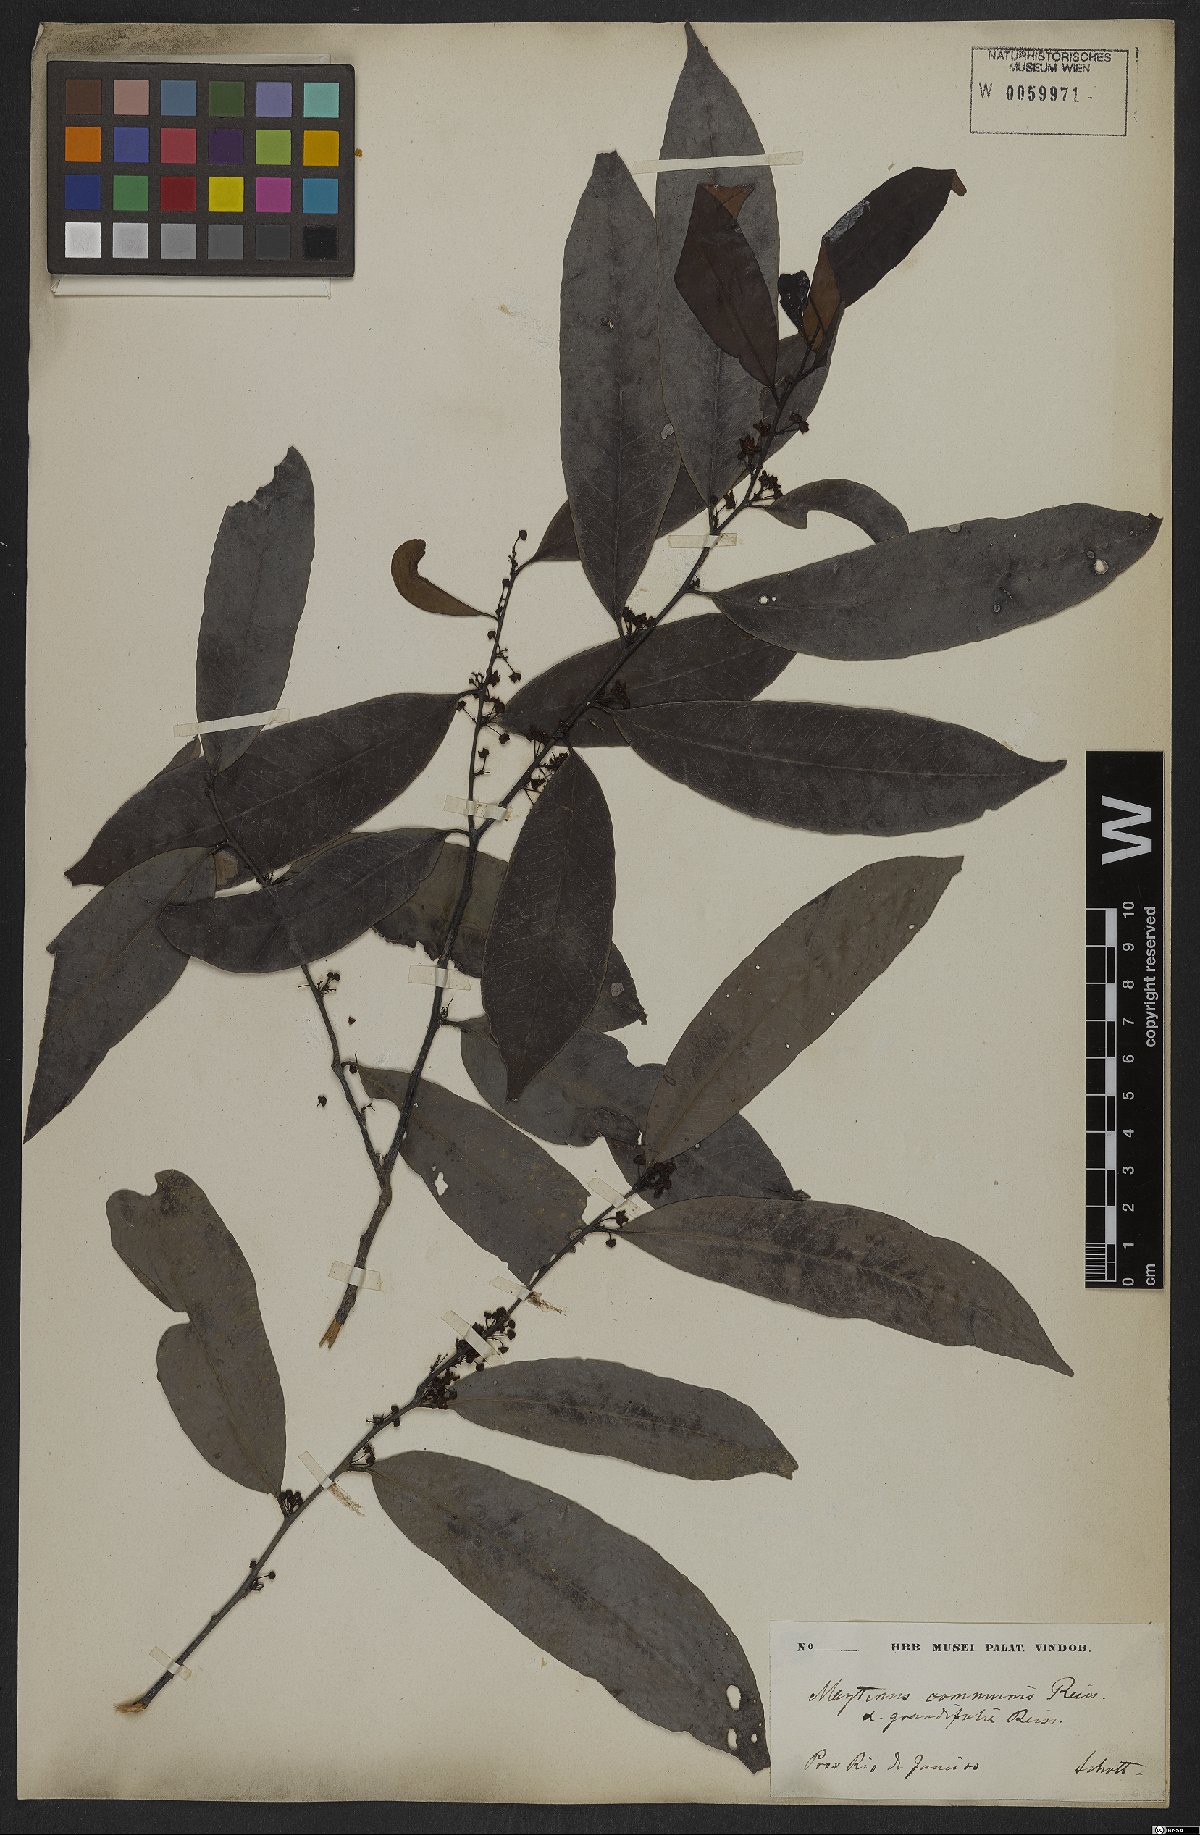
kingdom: Plantae
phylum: Tracheophyta
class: Magnoliopsida
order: Celastrales
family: Celastraceae
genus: Monteverdia
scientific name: Monteverdia communis
